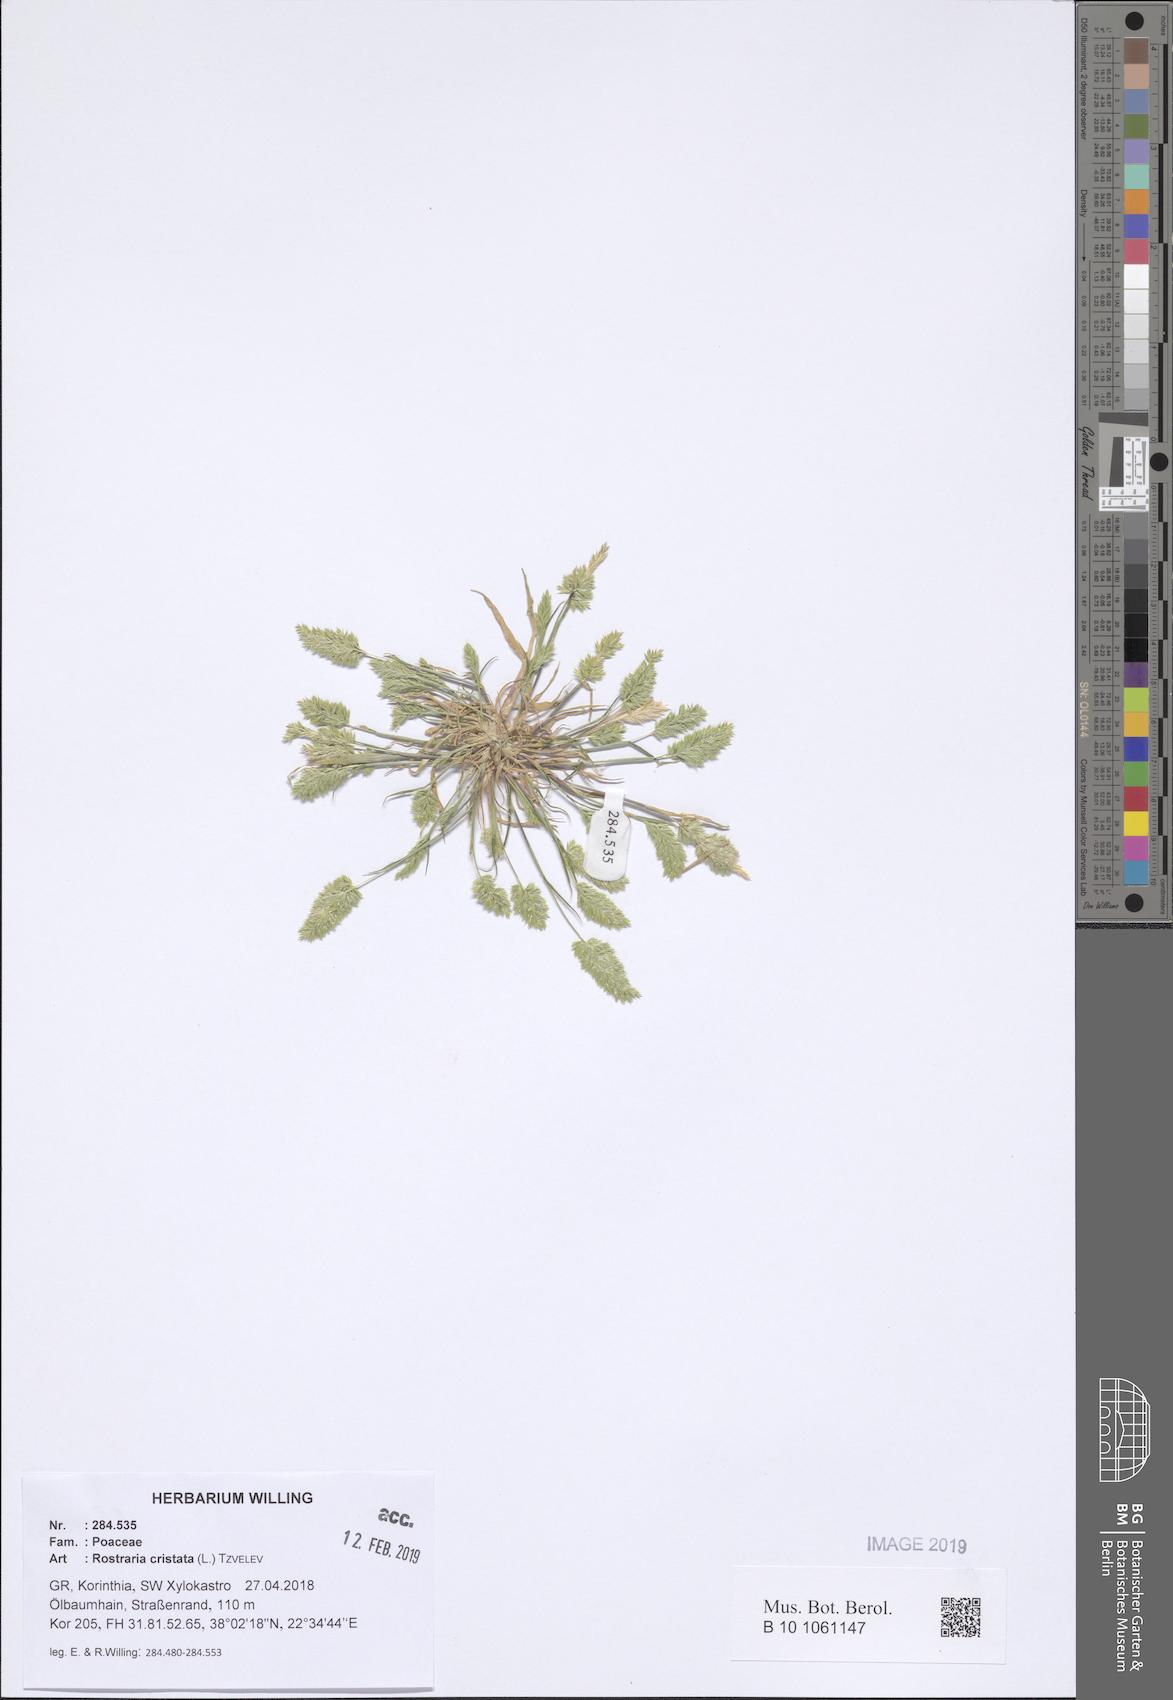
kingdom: Plantae
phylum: Tracheophyta
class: Liliopsida
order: Poales
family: Poaceae
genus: Rostraria
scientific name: Rostraria cristata
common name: Mediterranean hair-grass
